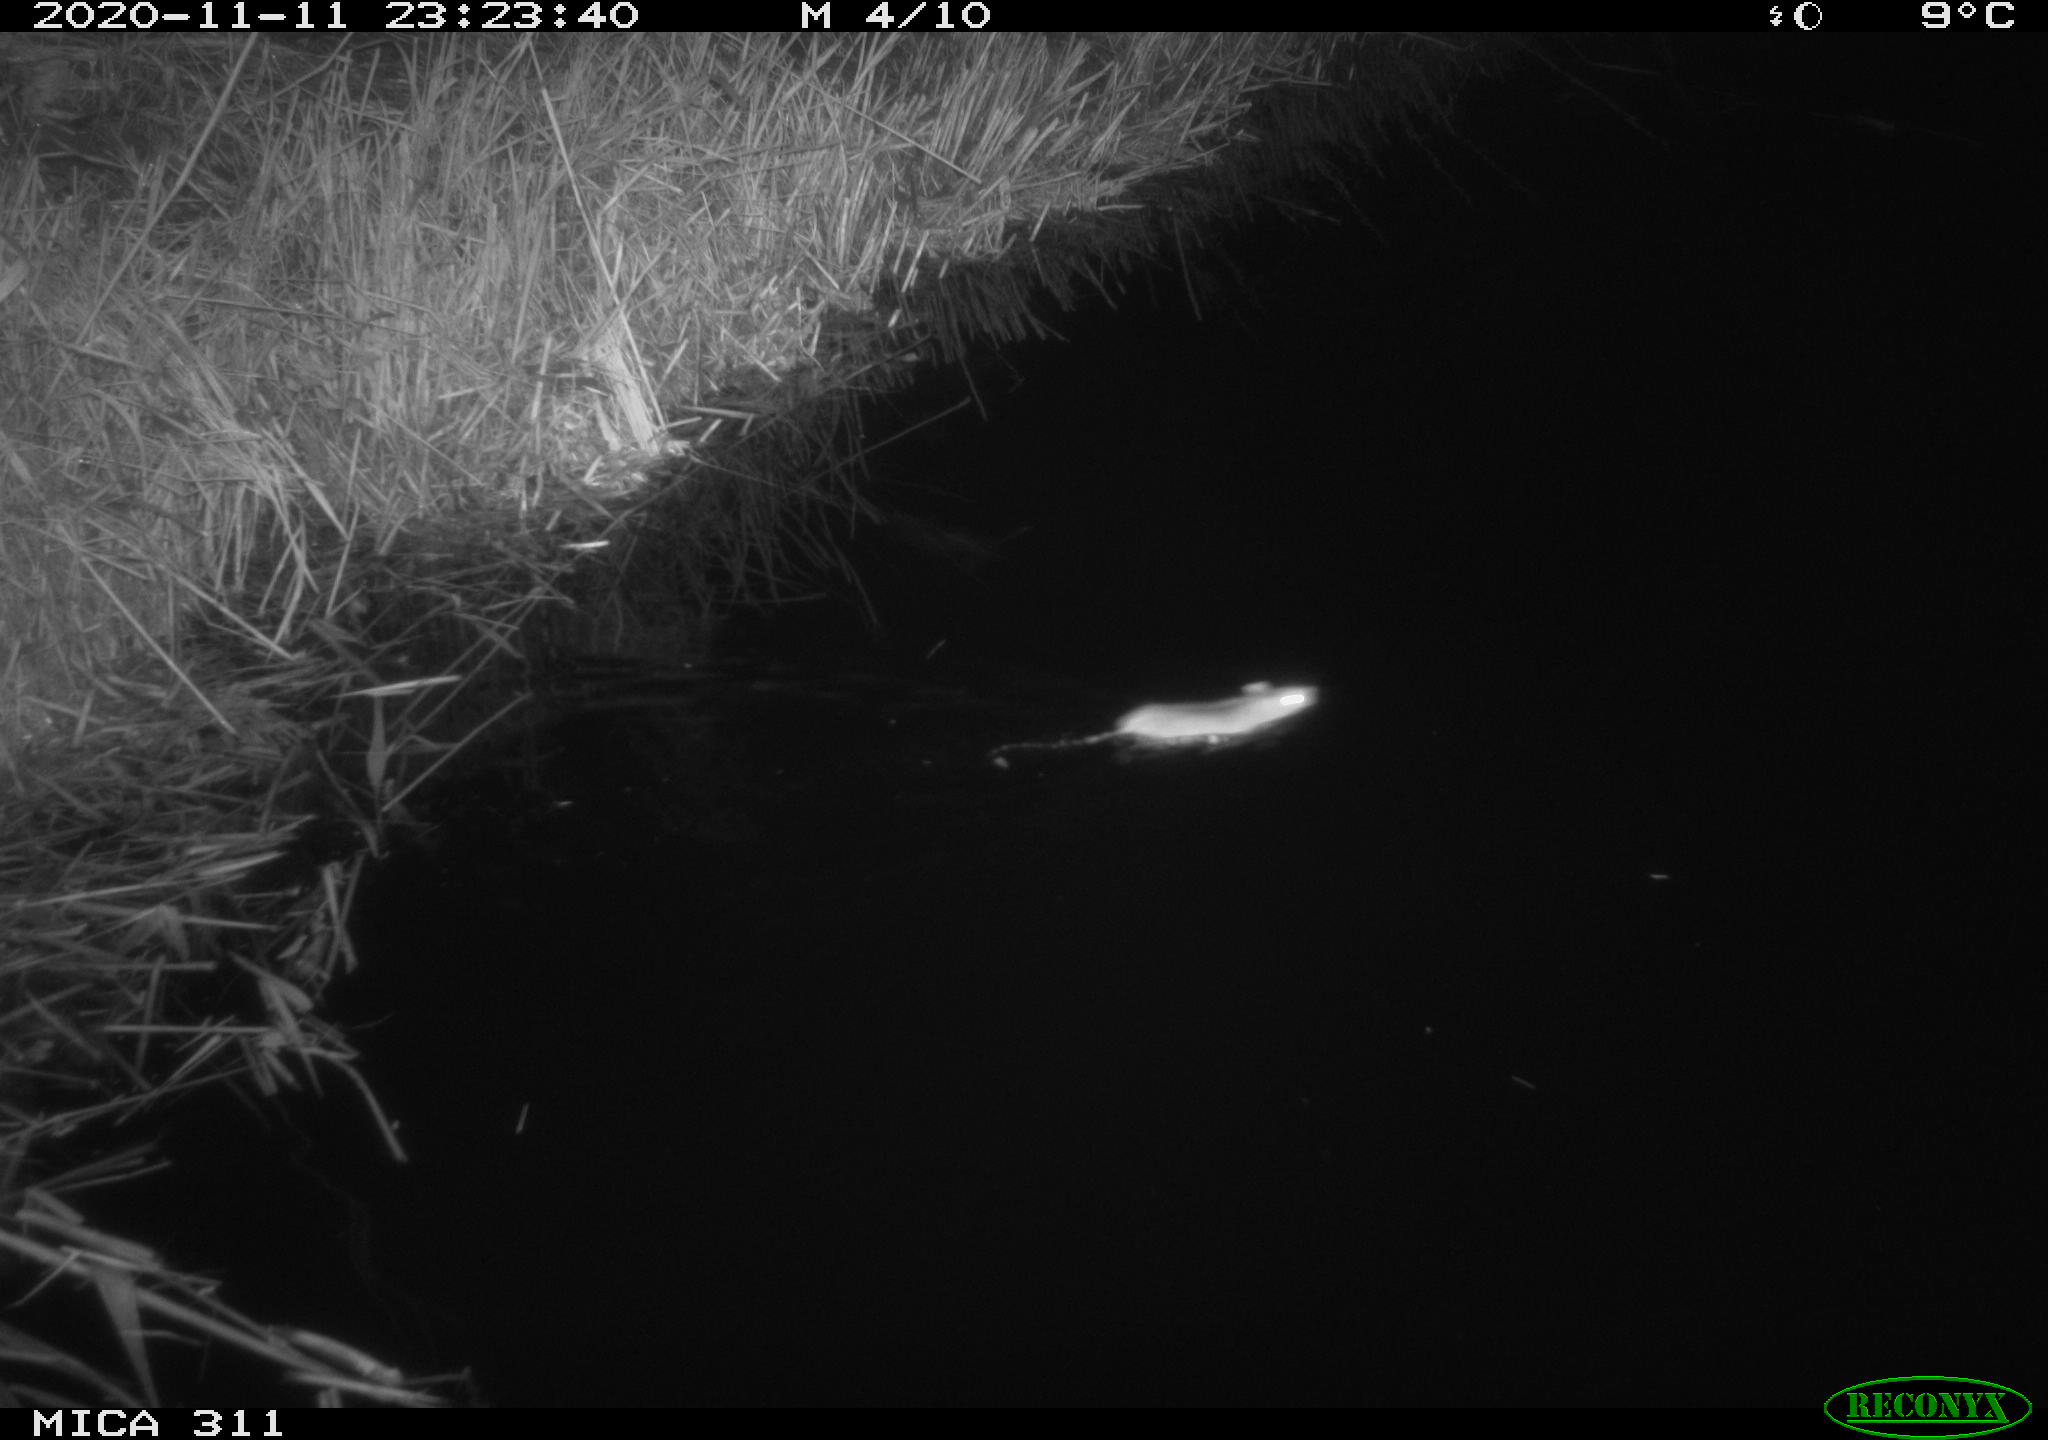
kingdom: Animalia
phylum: Chordata
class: Mammalia
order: Rodentia
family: Muridae
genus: Rattus
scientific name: Rattus norvegicus
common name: Brown rat
